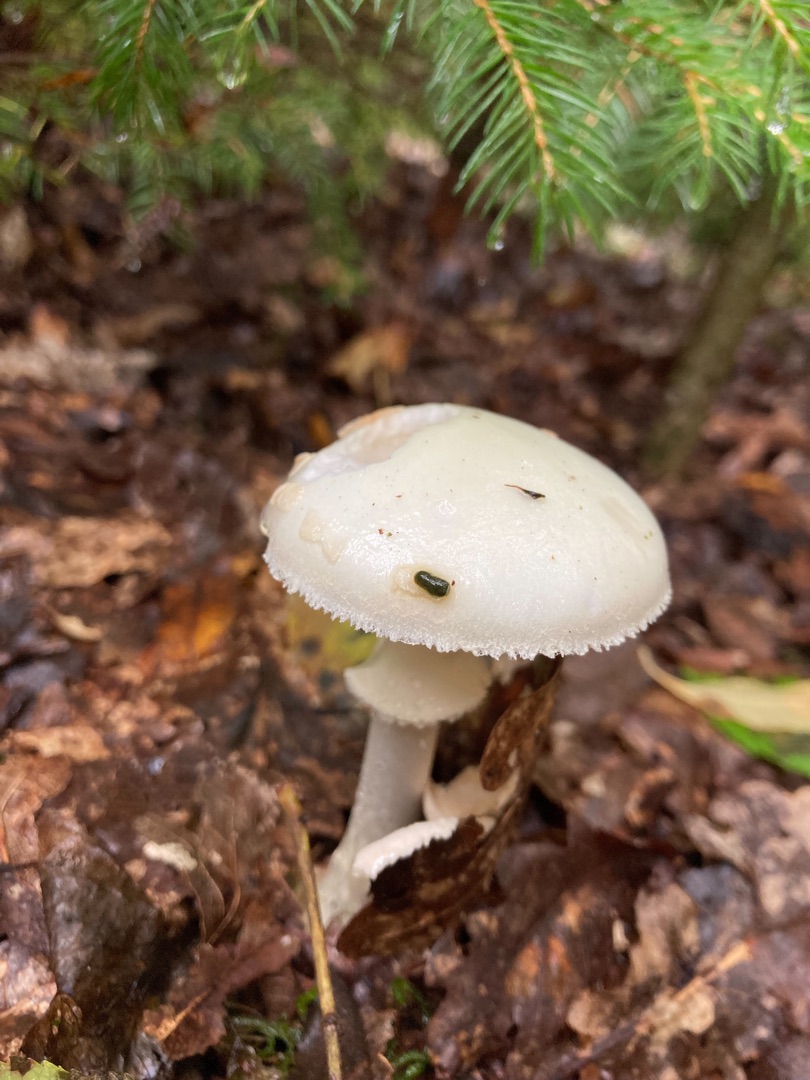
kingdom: Fungi
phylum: Basidiomycota
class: Agaricomycetes
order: Agaricales
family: Amanitaceae
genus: Amanita
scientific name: Amanita citrina
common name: Kugleknoldet fluesvamp
